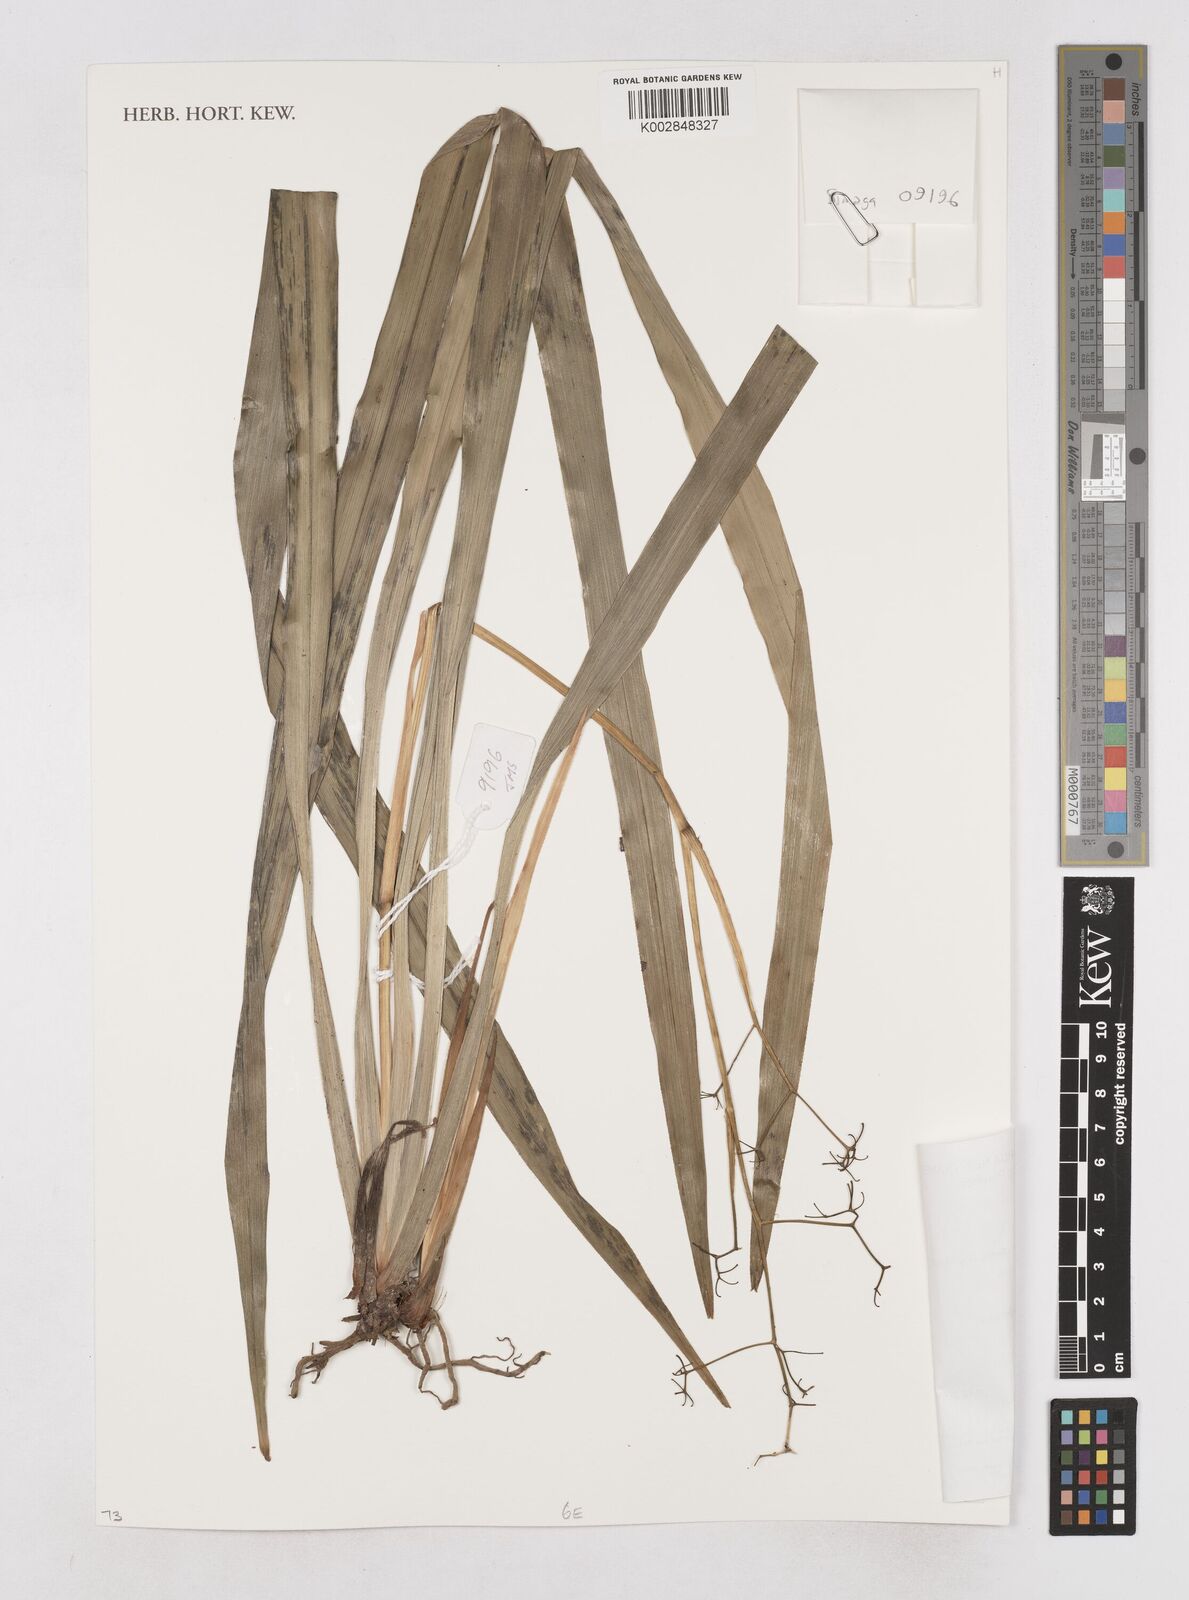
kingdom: Plantae
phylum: Tracheophyta
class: Liliopsida
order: Asparagales
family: Asphodelaceae
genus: Dianella
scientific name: Dianella ensifolia
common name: New zealand lilyplant
